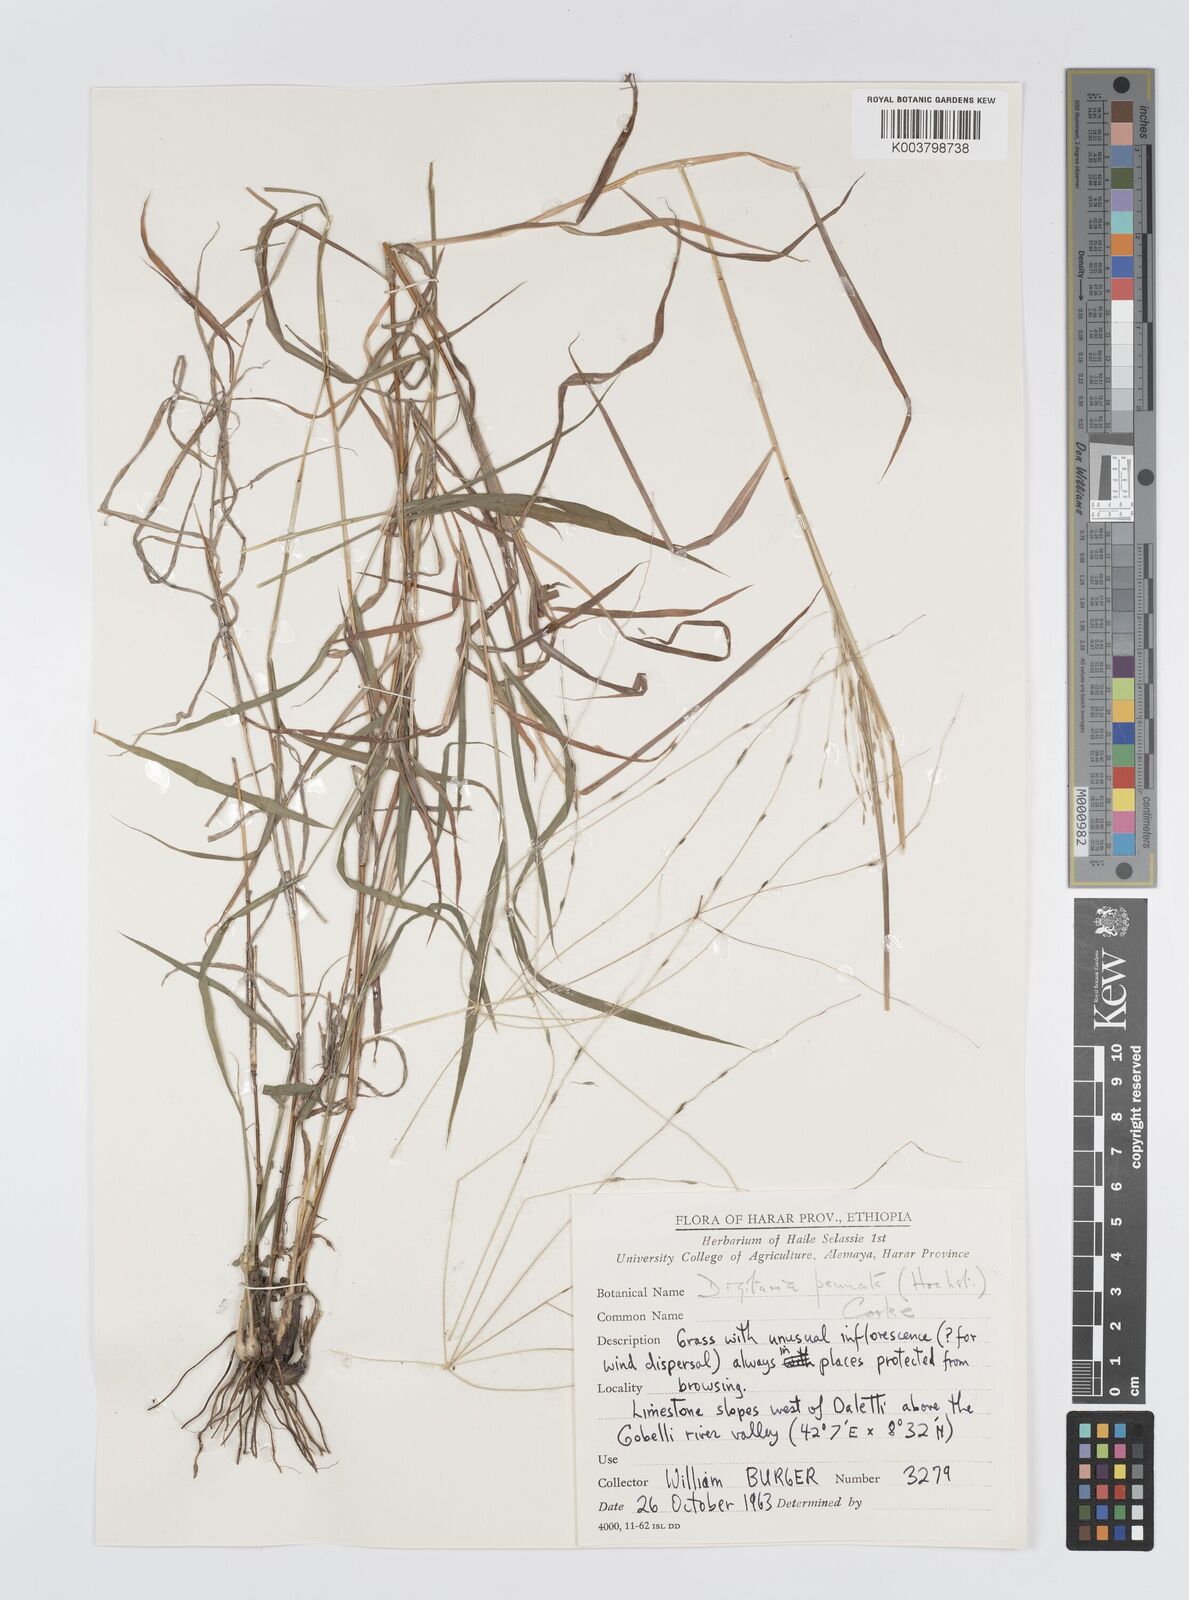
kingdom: Plantae
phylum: Tracheophyta
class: Liliopsida
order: Poales
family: Poaceae
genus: Digitaria
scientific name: Digitaria pennata
